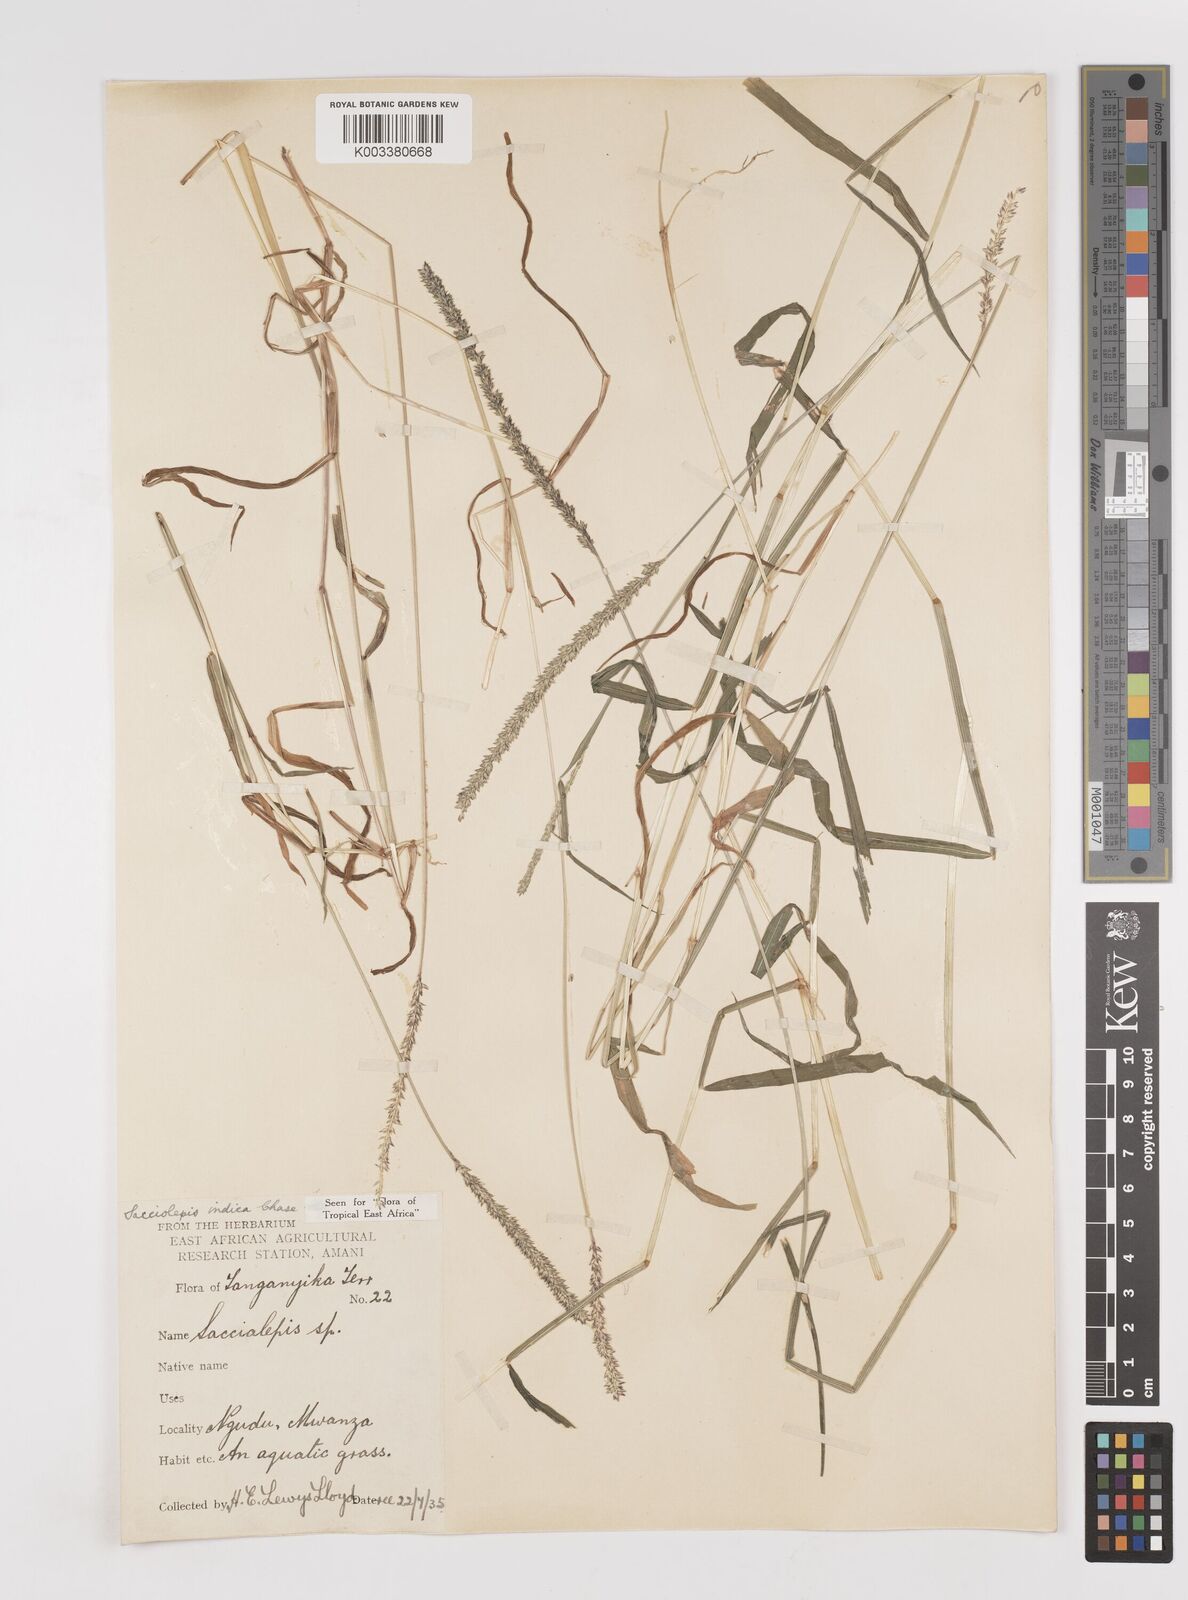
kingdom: Plantae
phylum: Tracheophyta
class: Liliopsida
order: Poales
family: Poaceae
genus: Sacciolepis
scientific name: Sacciolepis indica
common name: Glenwoodgrass
